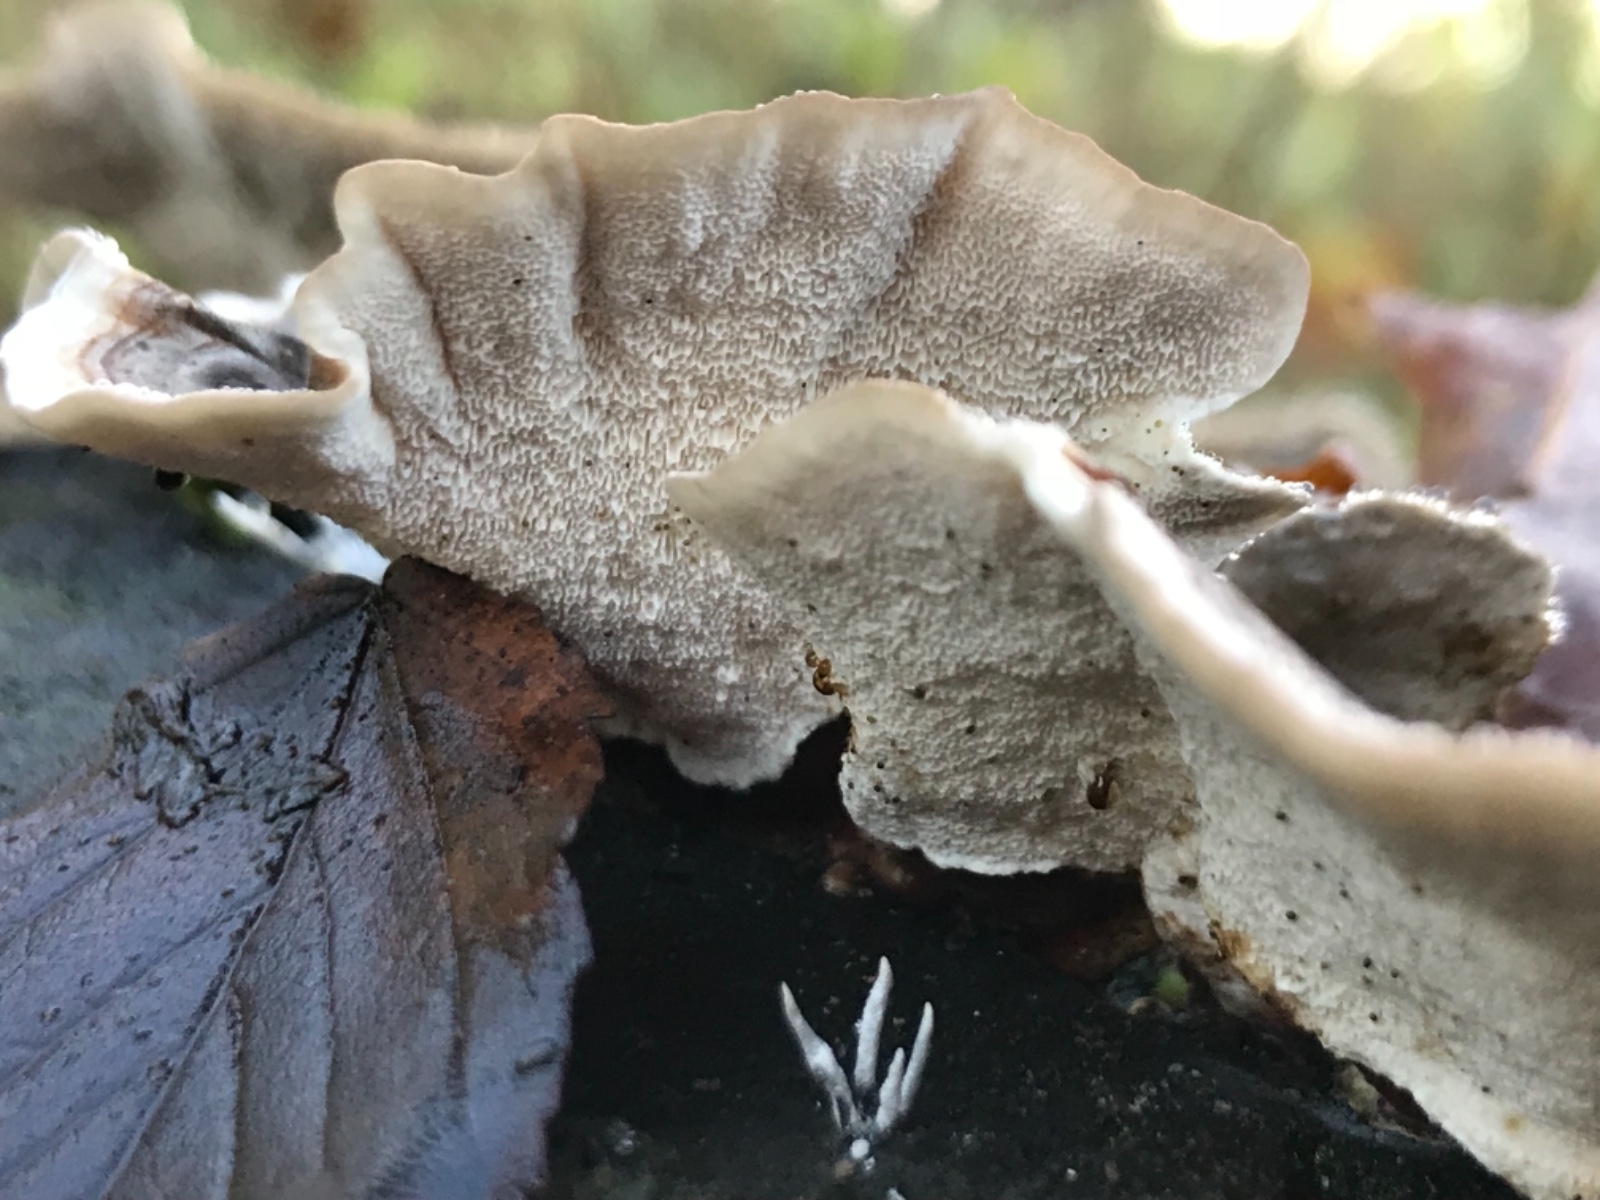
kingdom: Fungi
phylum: Basidiomycota
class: Agaricomycetes
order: Polyporales
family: Polyporaceae
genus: Trametes
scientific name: Trametes versicolor
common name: broget læderporesvamp
